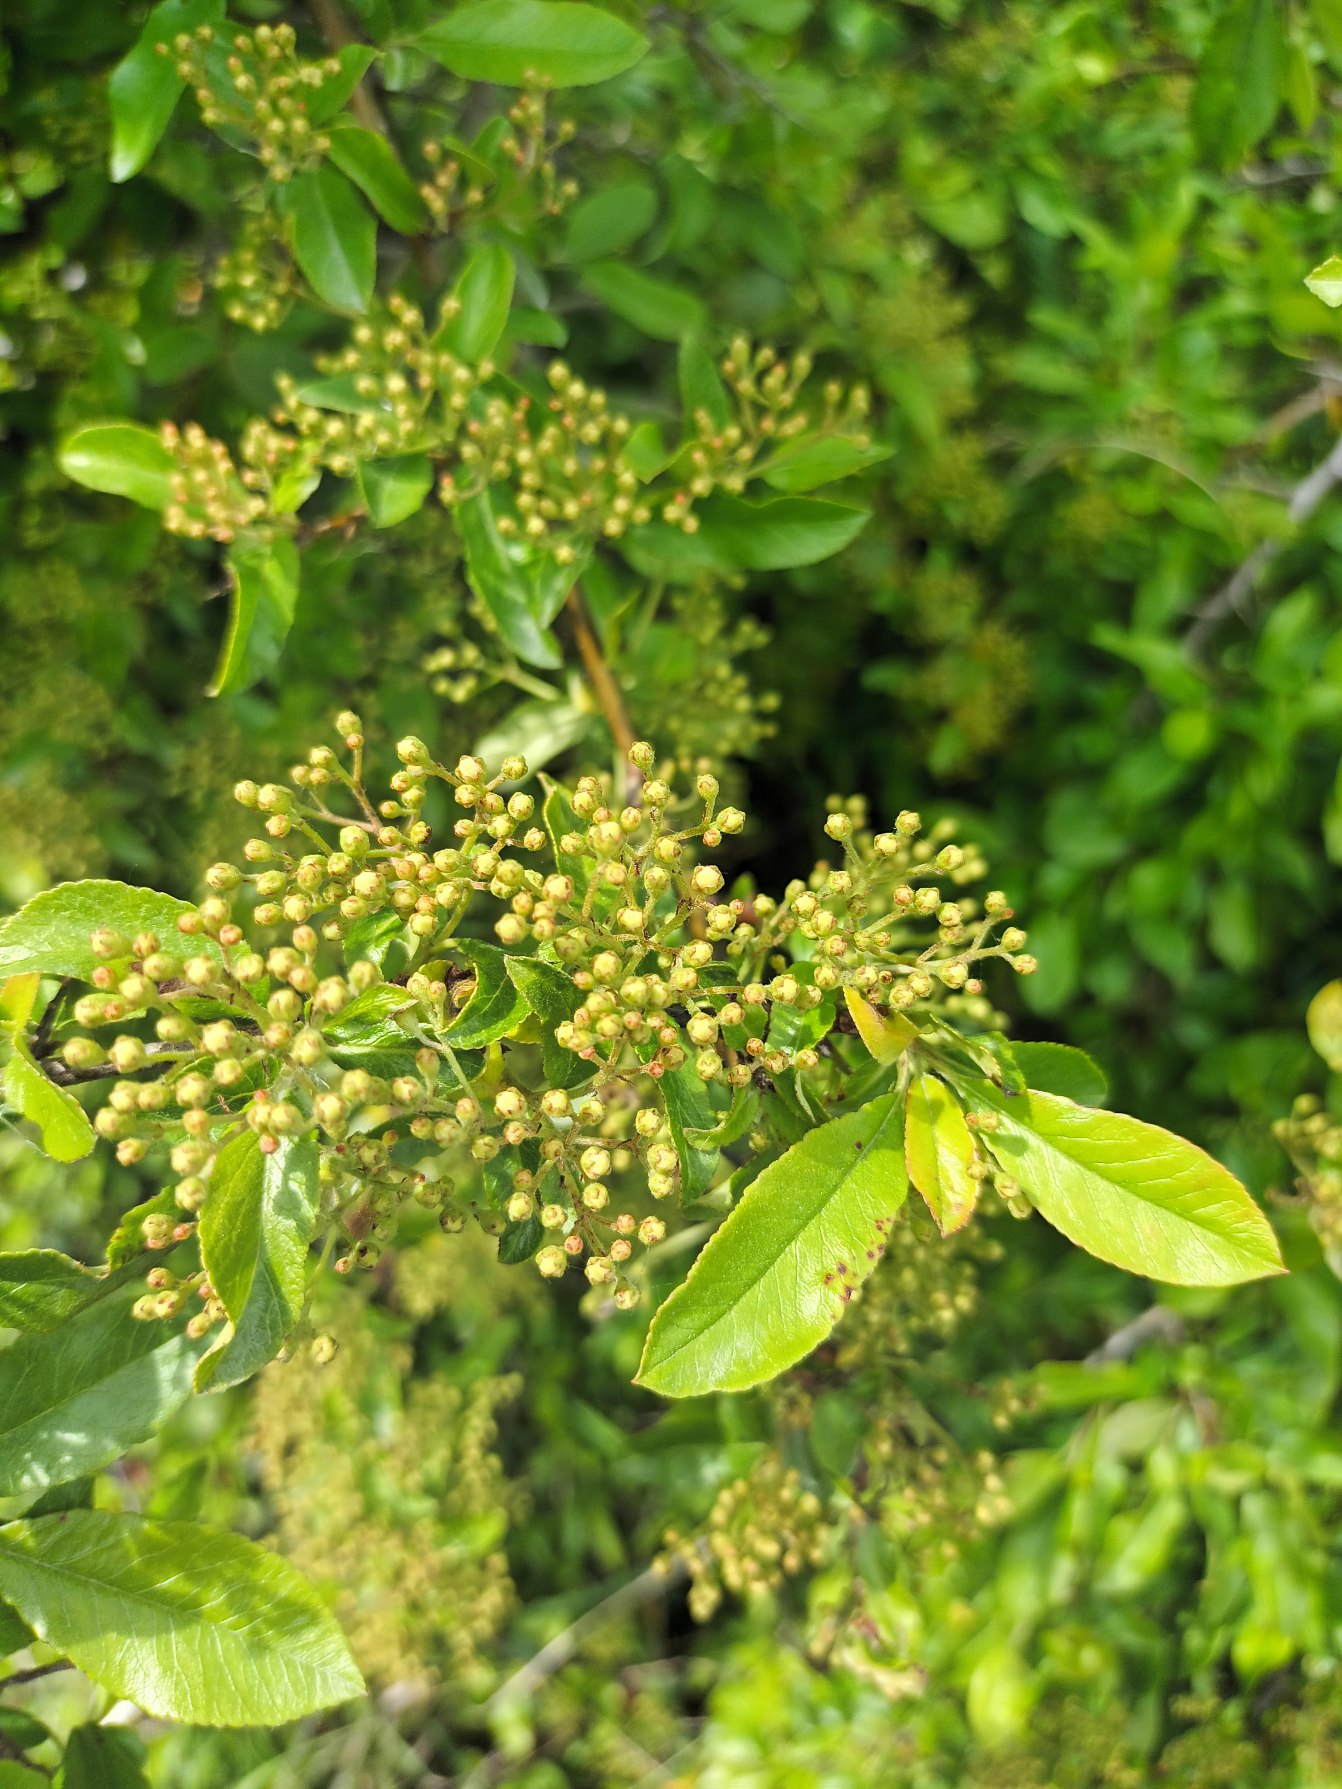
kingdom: Plantae
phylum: Tracheophyta
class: Magnoliopsida
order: Rosales
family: Rosaceae
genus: Pyracantha
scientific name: Pyracantha coccinea
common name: Ildtorn
